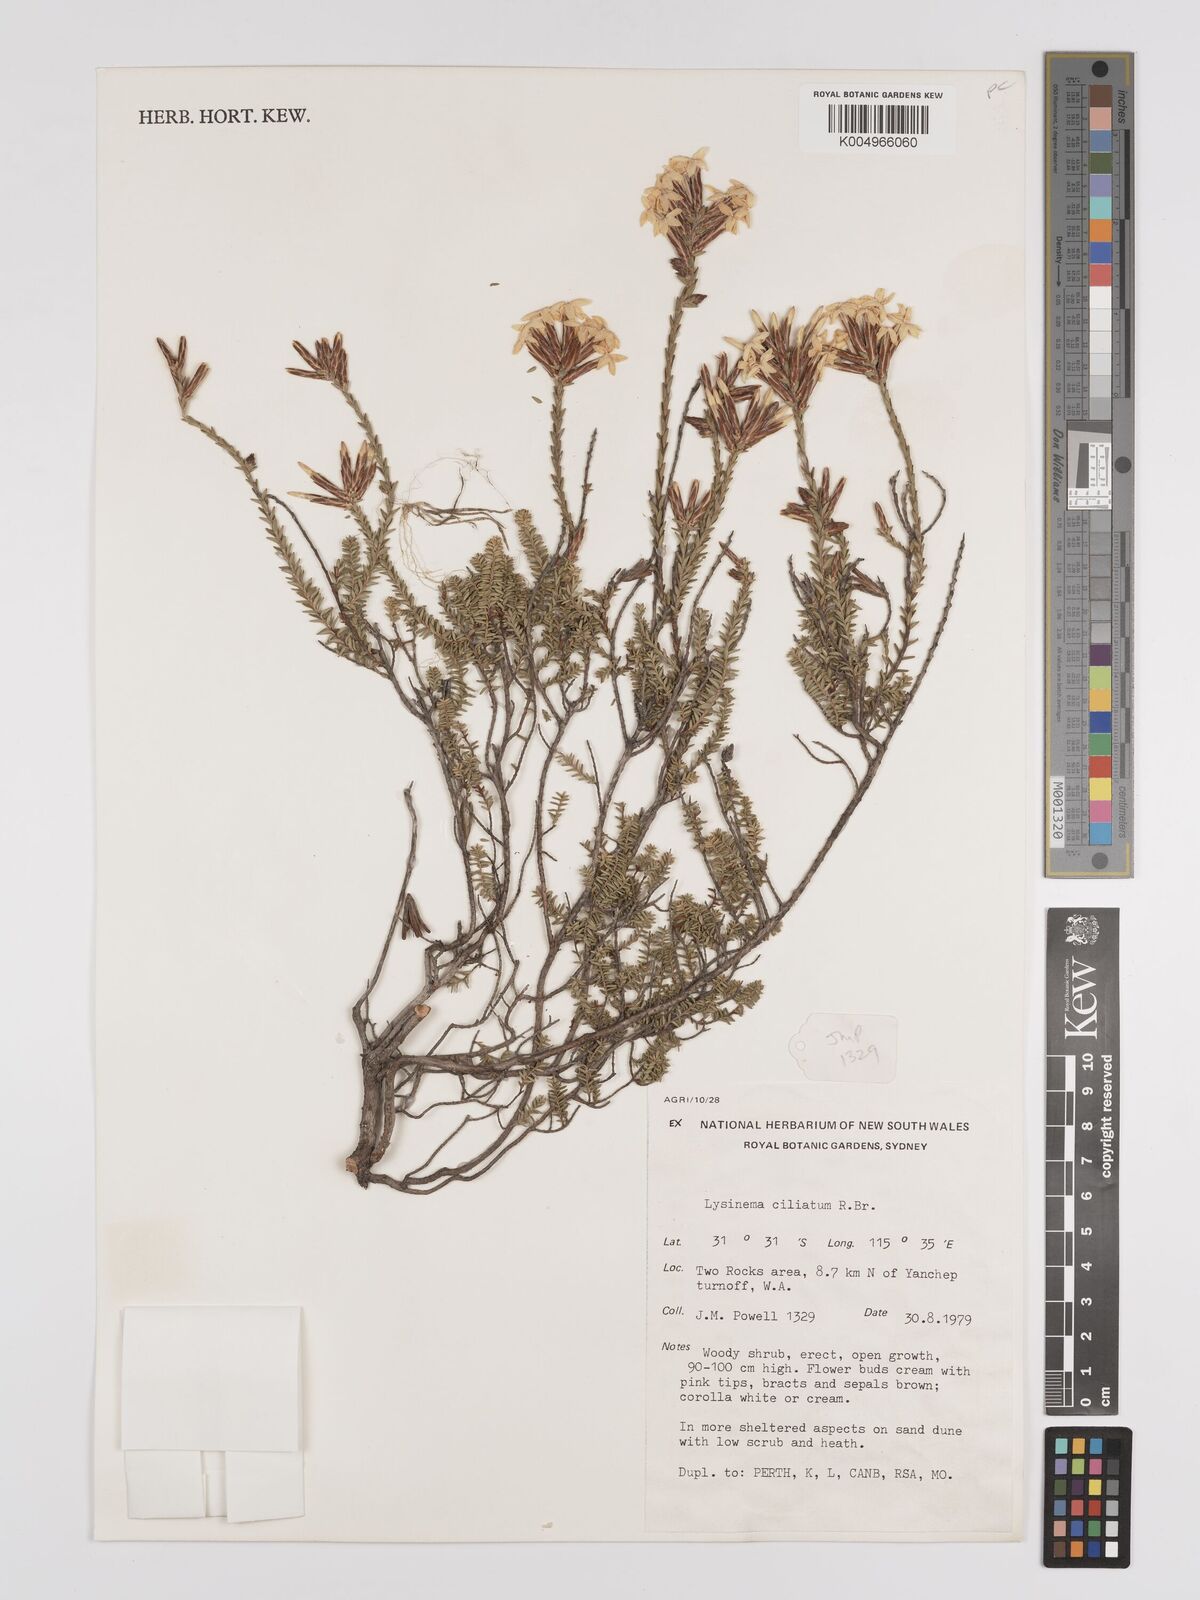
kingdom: Plantae
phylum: Tracheophyta
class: Magnoliopsida
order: Ericales
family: Ericaceae
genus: Lysinema
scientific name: Lysinema ciliatum
